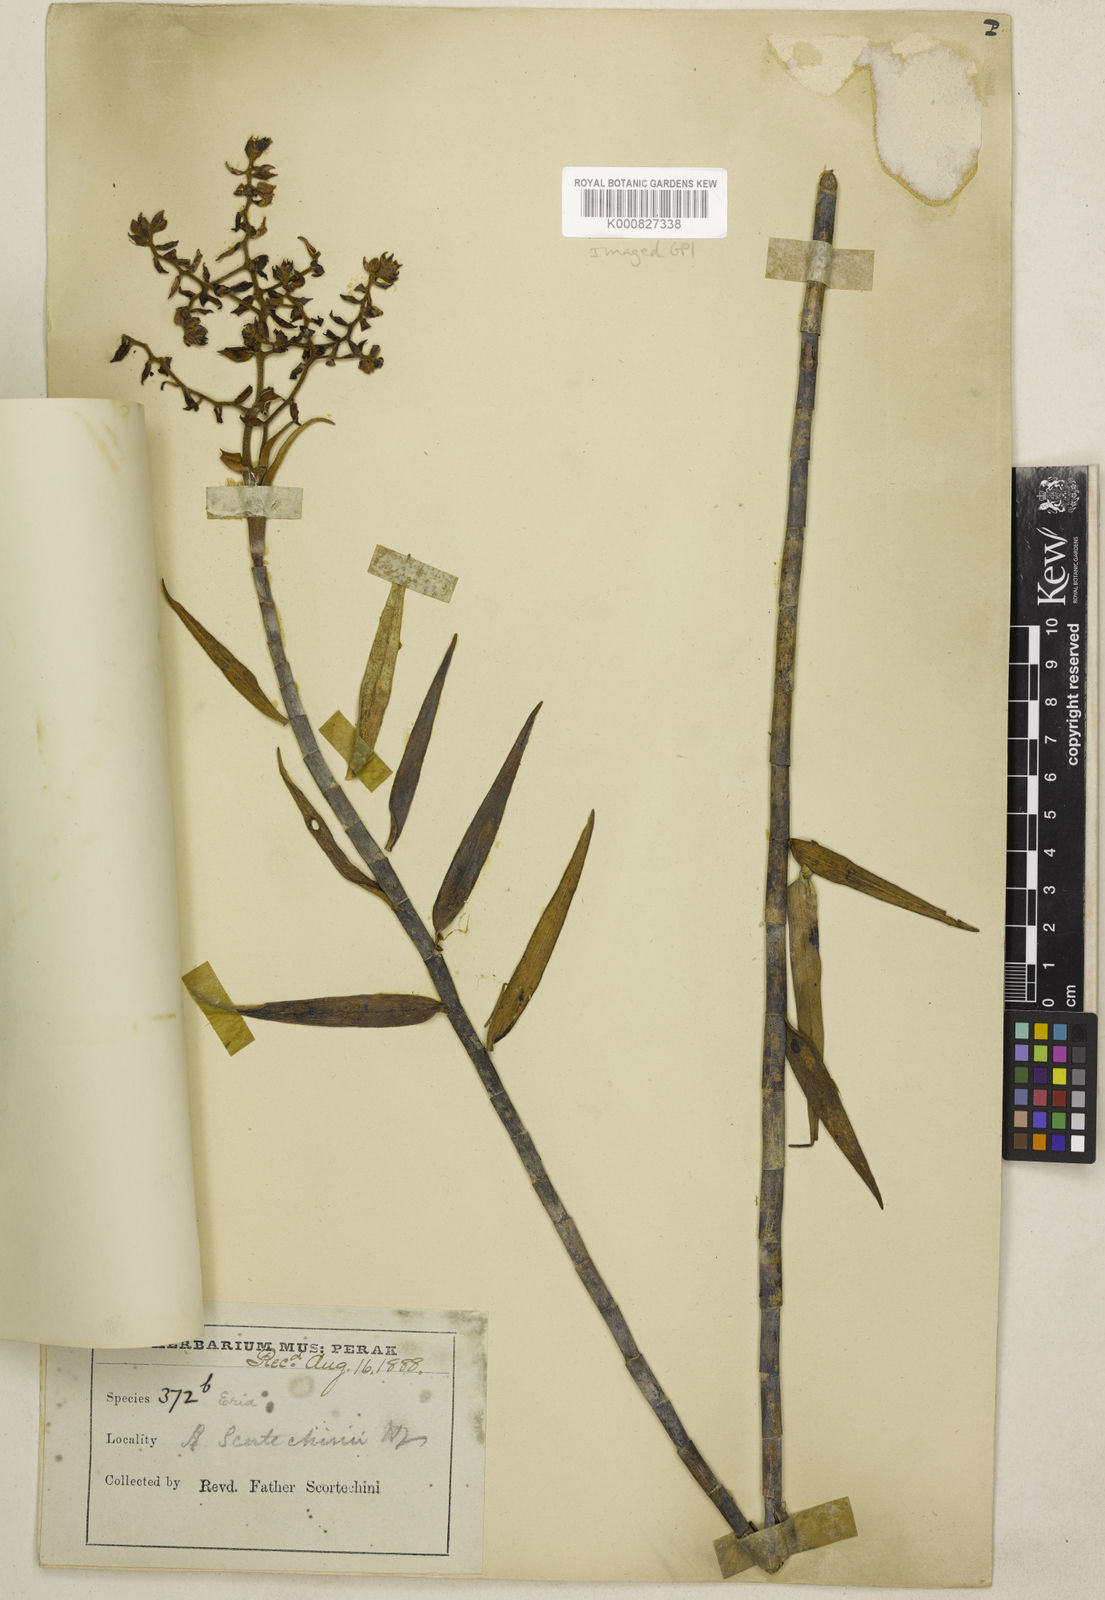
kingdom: Plantae
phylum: Tracheophyta
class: Liliopsida
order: Asparagales
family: Orchidaceae
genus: Dilochiopsis
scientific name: Dilochiopsis scortechinii
